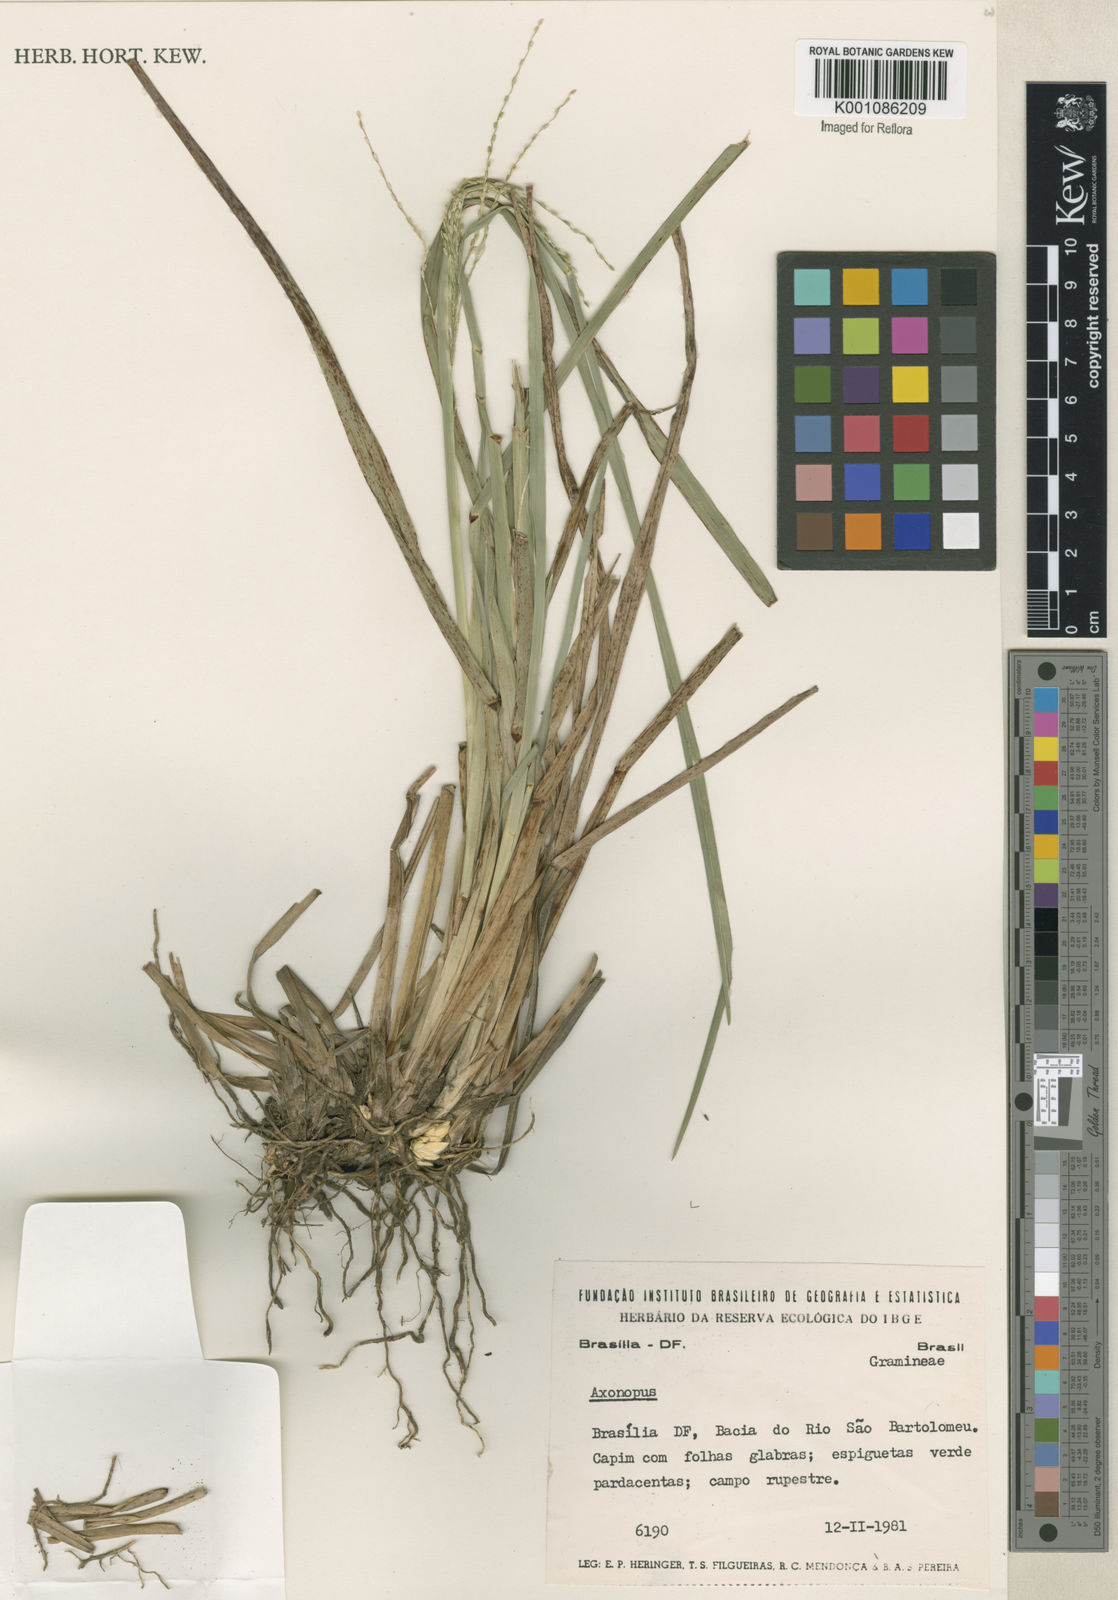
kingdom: Plantae
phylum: Tracheophyta
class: Liliopsida
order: Poales
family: Poaceae
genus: Axonopus
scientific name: Axonopus
